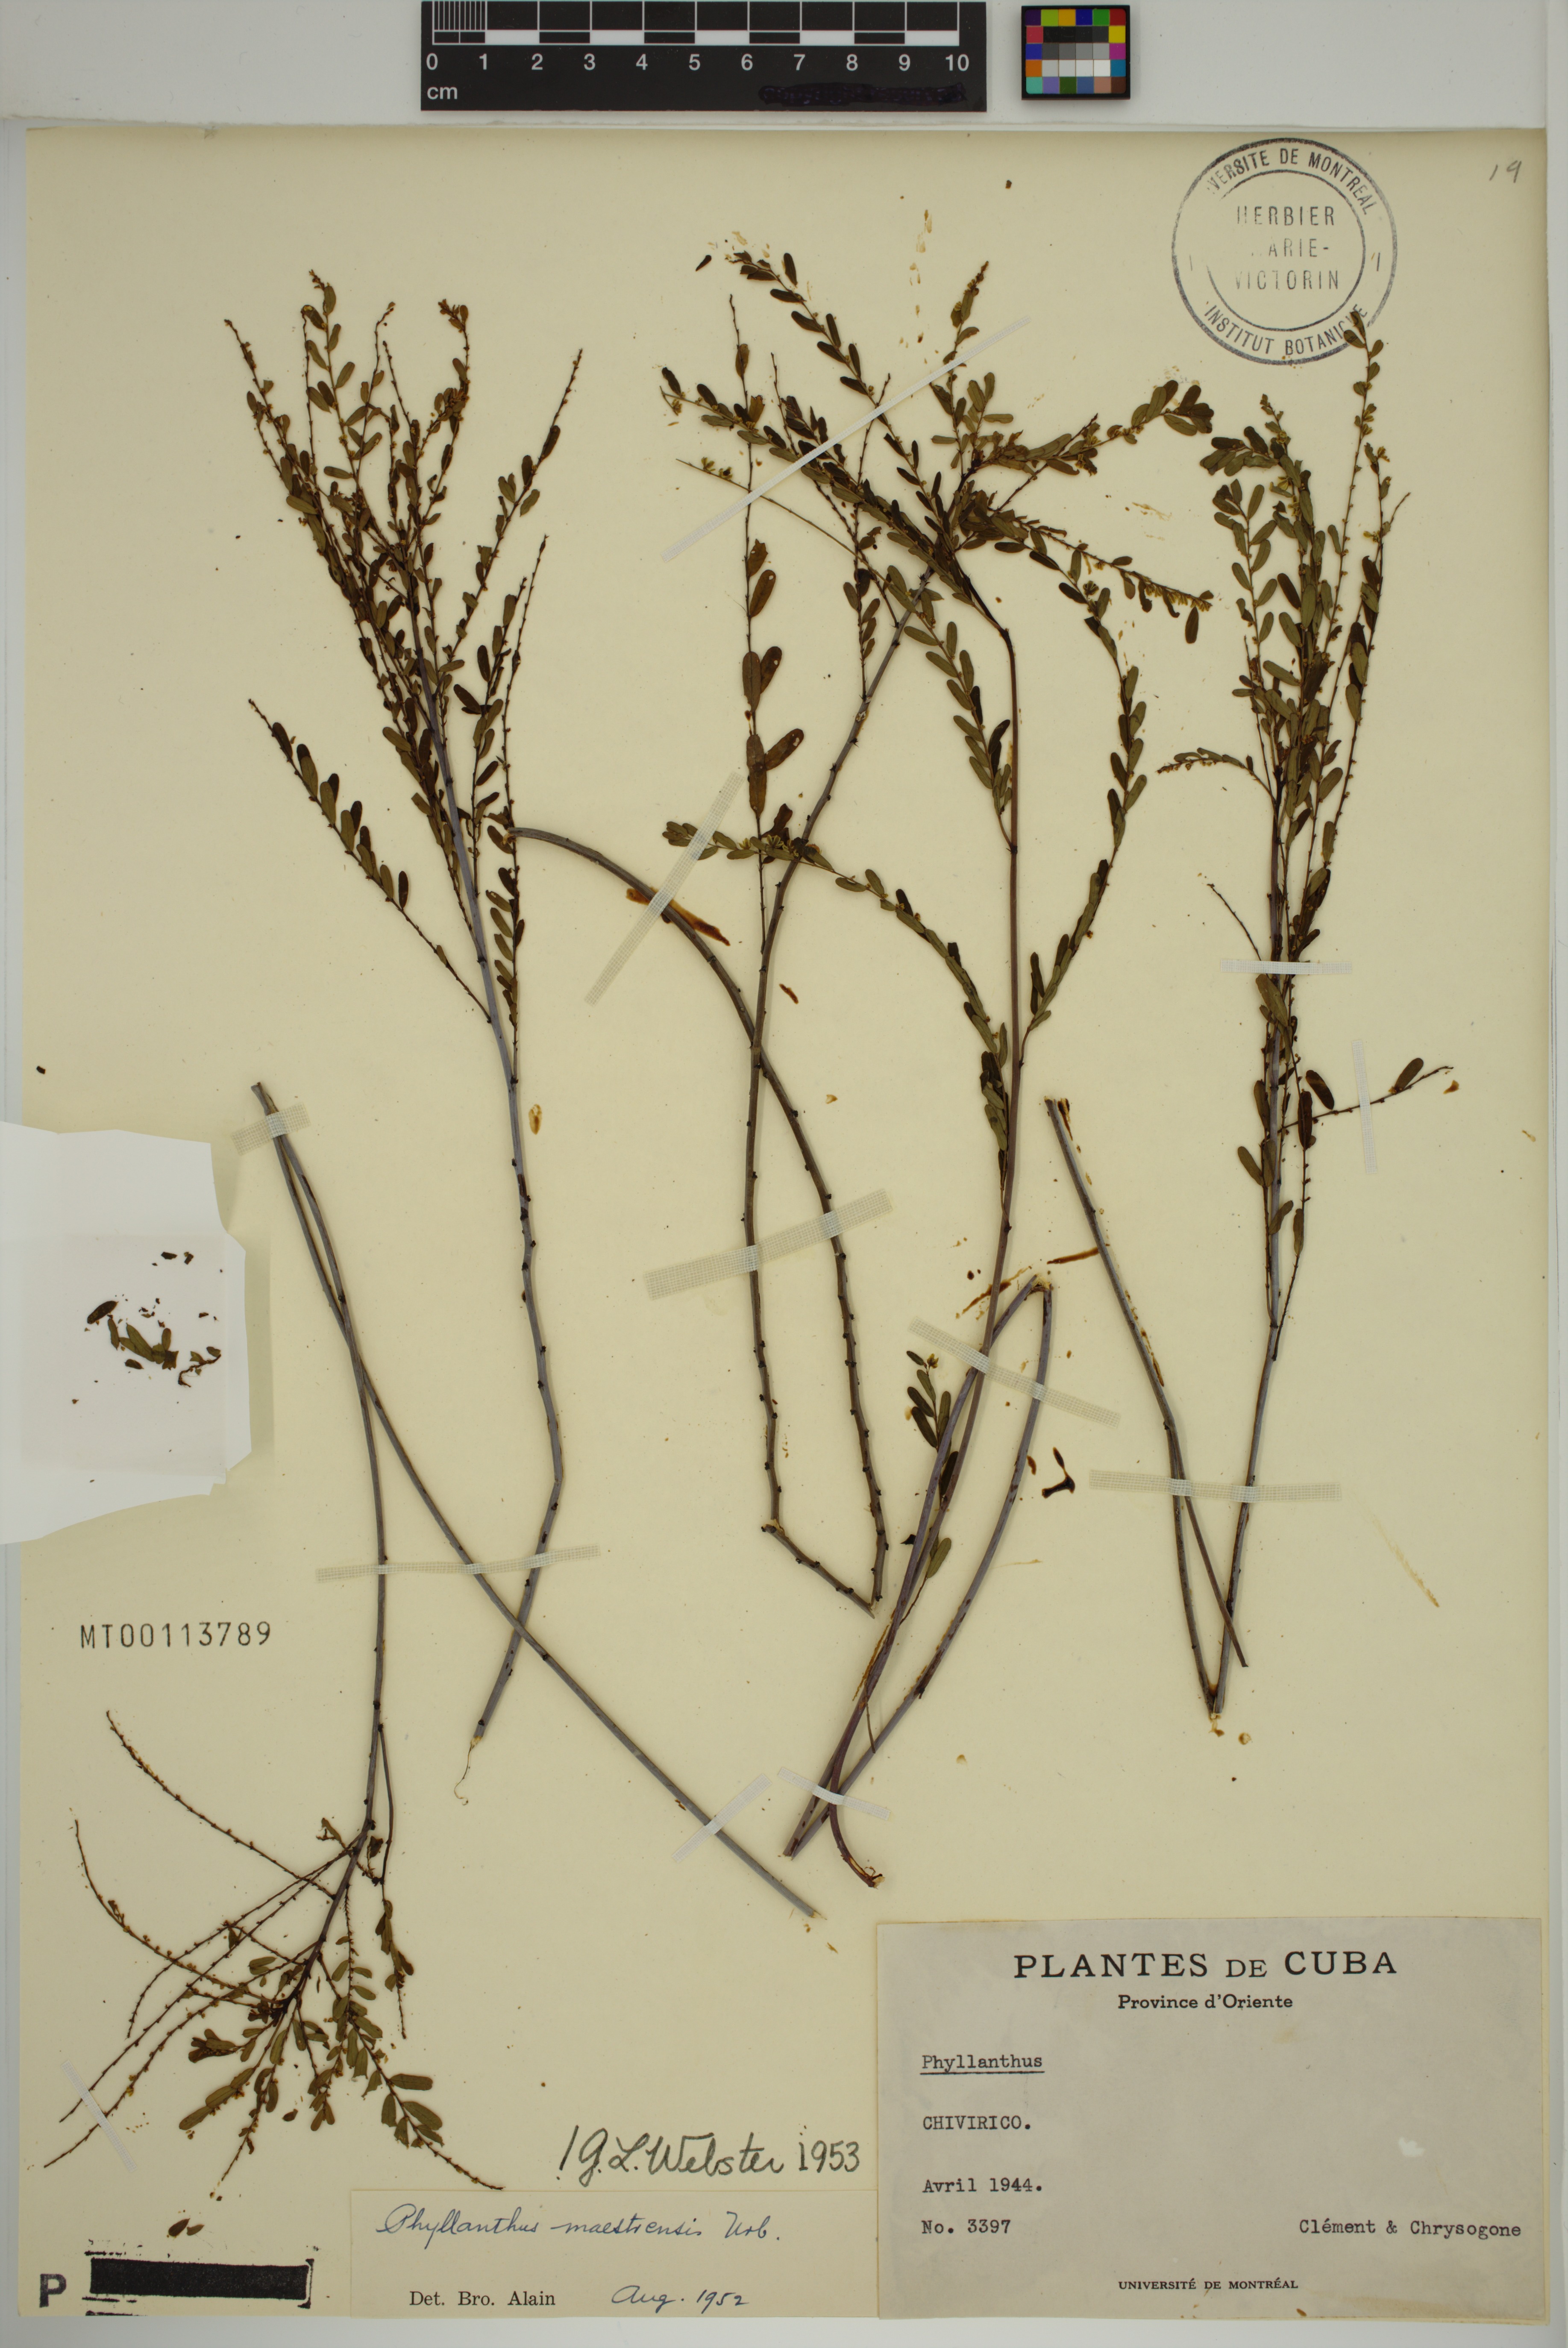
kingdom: Plantae
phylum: Tracheophyta
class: Magnoliopsida
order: Malpighiales
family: Phyllanthaceae
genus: Phyllanthus
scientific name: Phyllanthus maestrensis
